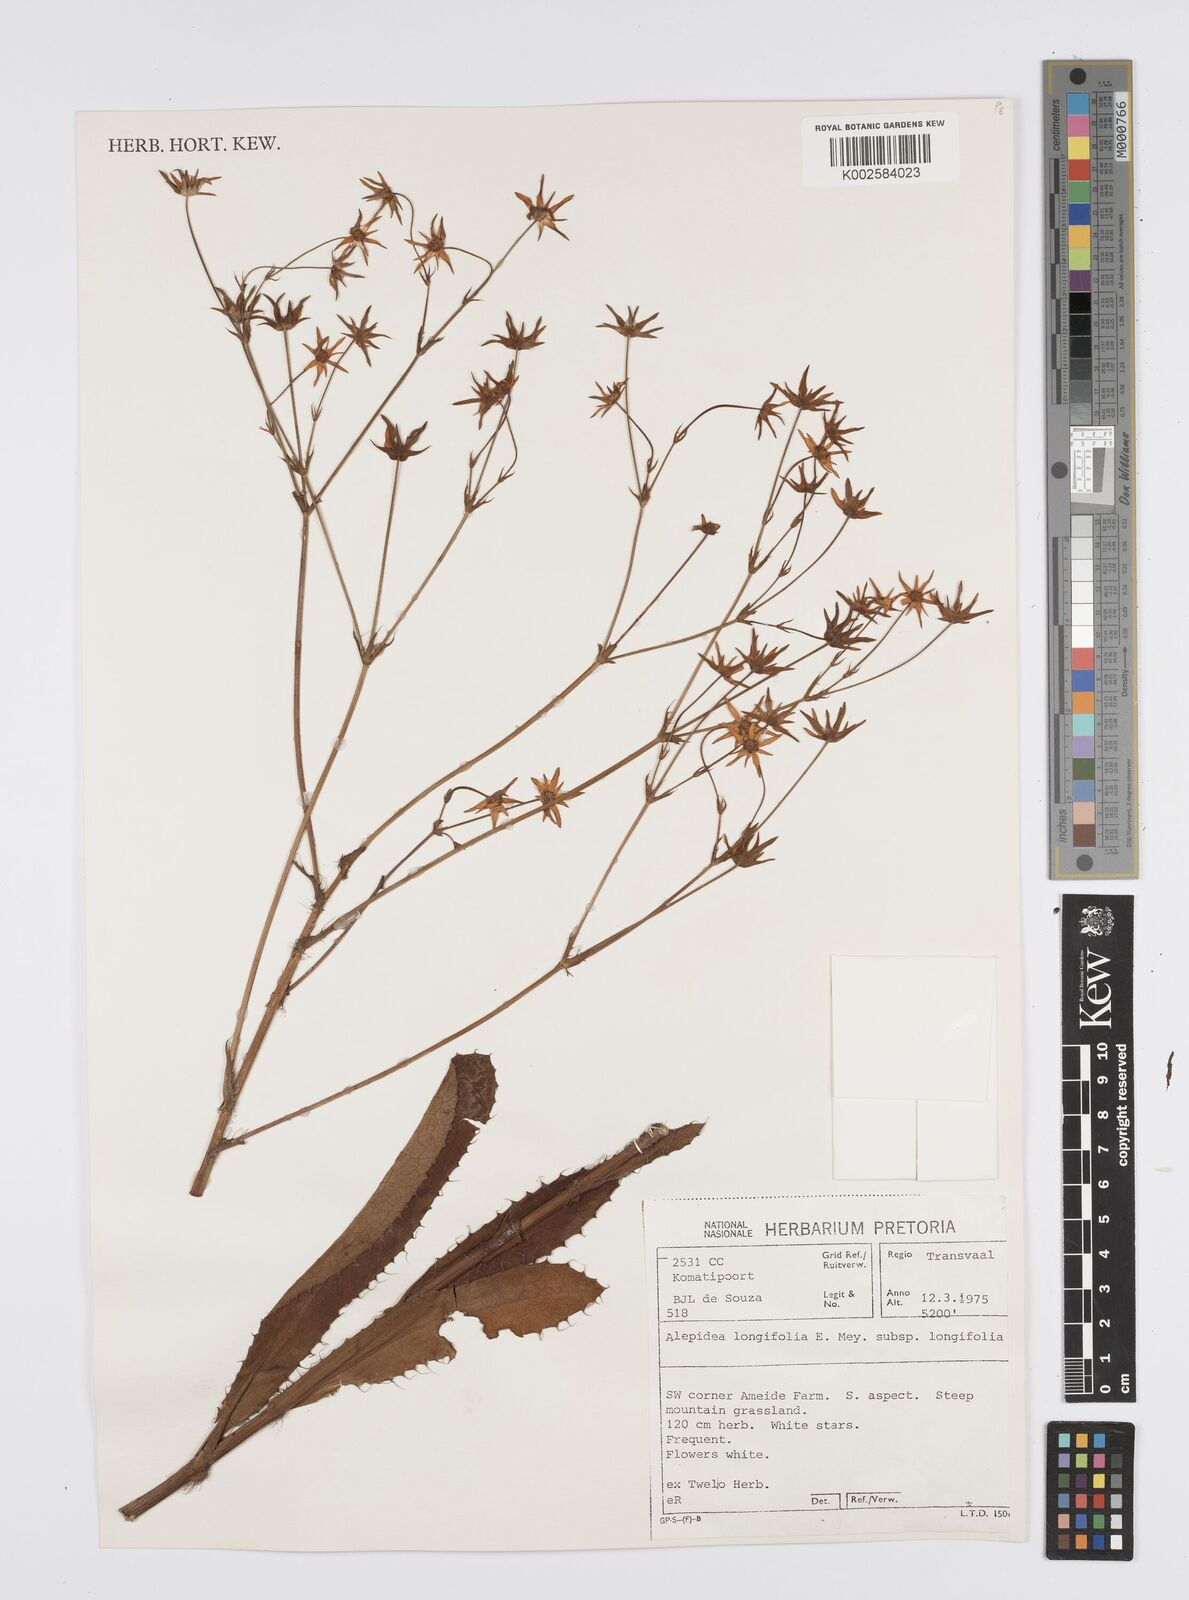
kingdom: Plantae
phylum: Tracheophyta
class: Magnoliopsida
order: Apiales
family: Apiaceae
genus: Alepidea
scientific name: Alepidea
